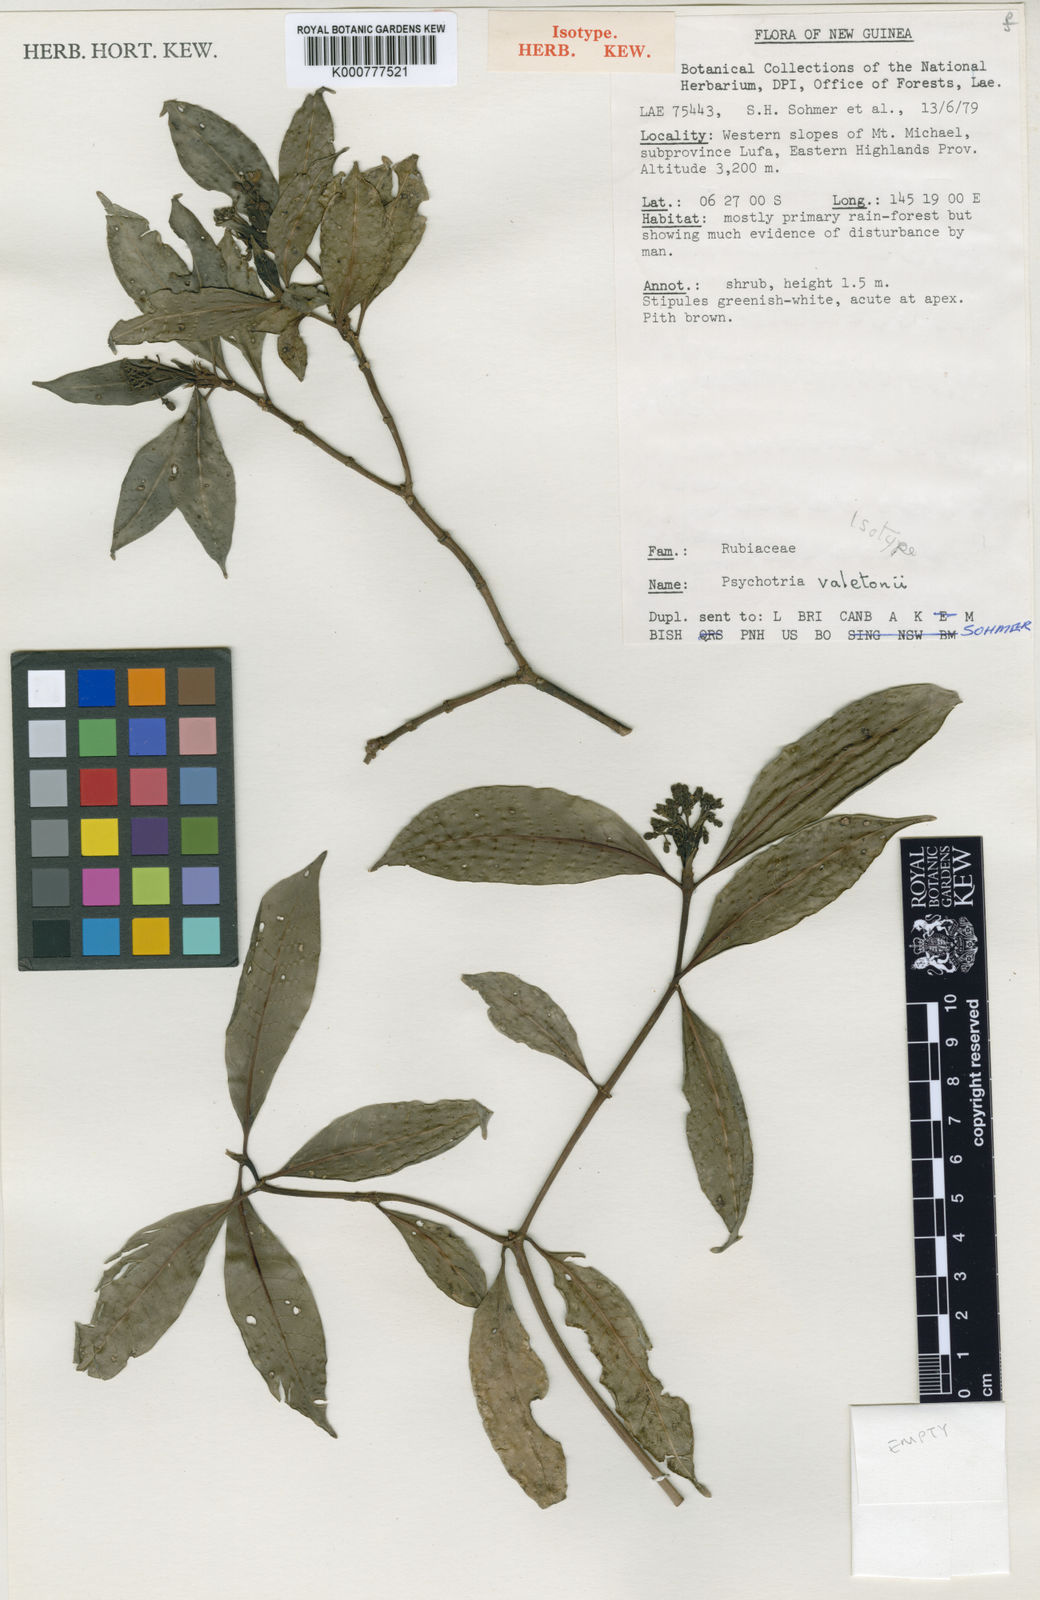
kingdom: Plantae
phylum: Tracheophyta
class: Magnoliopsida
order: Gentianales
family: Rubiaceae
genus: Psychotria
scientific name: Psychotria valetoniana
